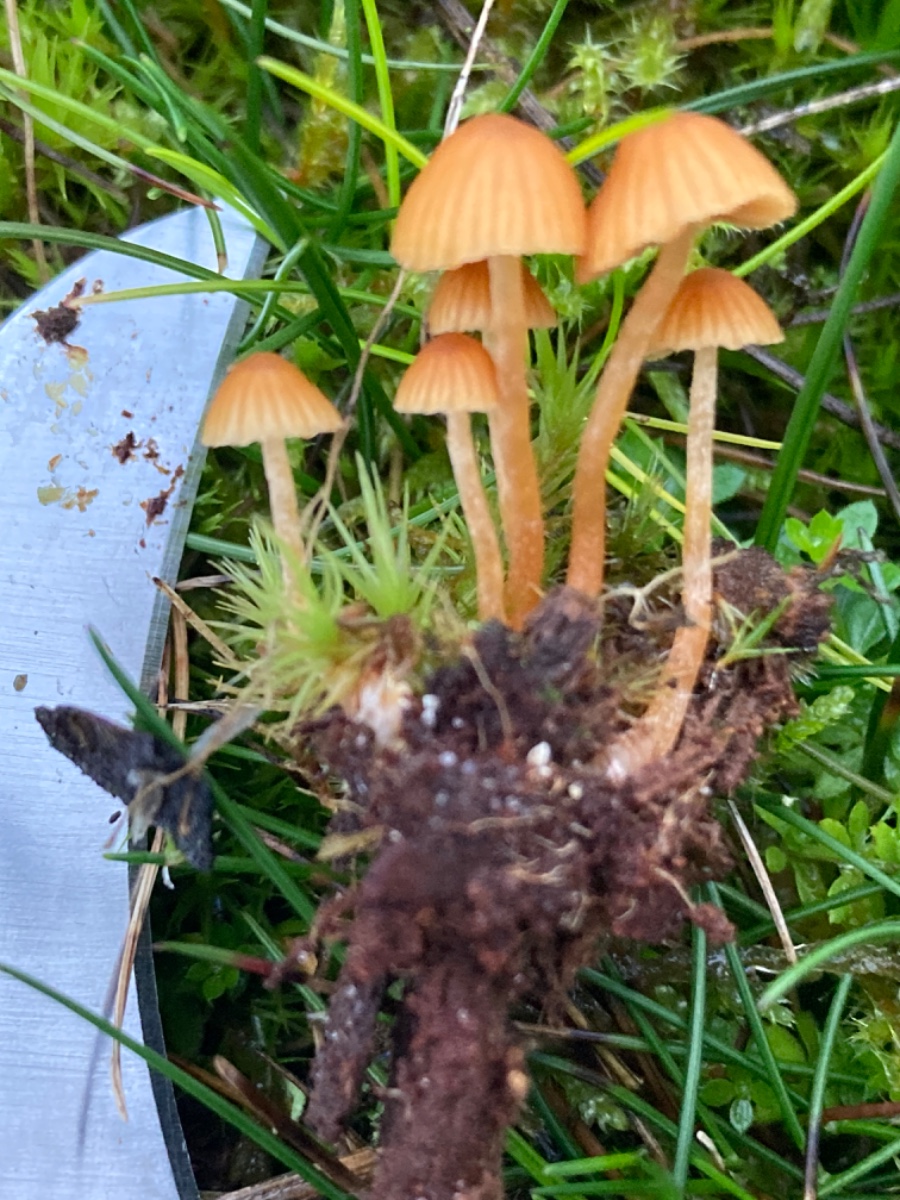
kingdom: Fungi
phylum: Basidiomycota
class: Agaricomycetes
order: Agaricales
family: Hymenogastraceae
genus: Galerina
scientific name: Galerina
